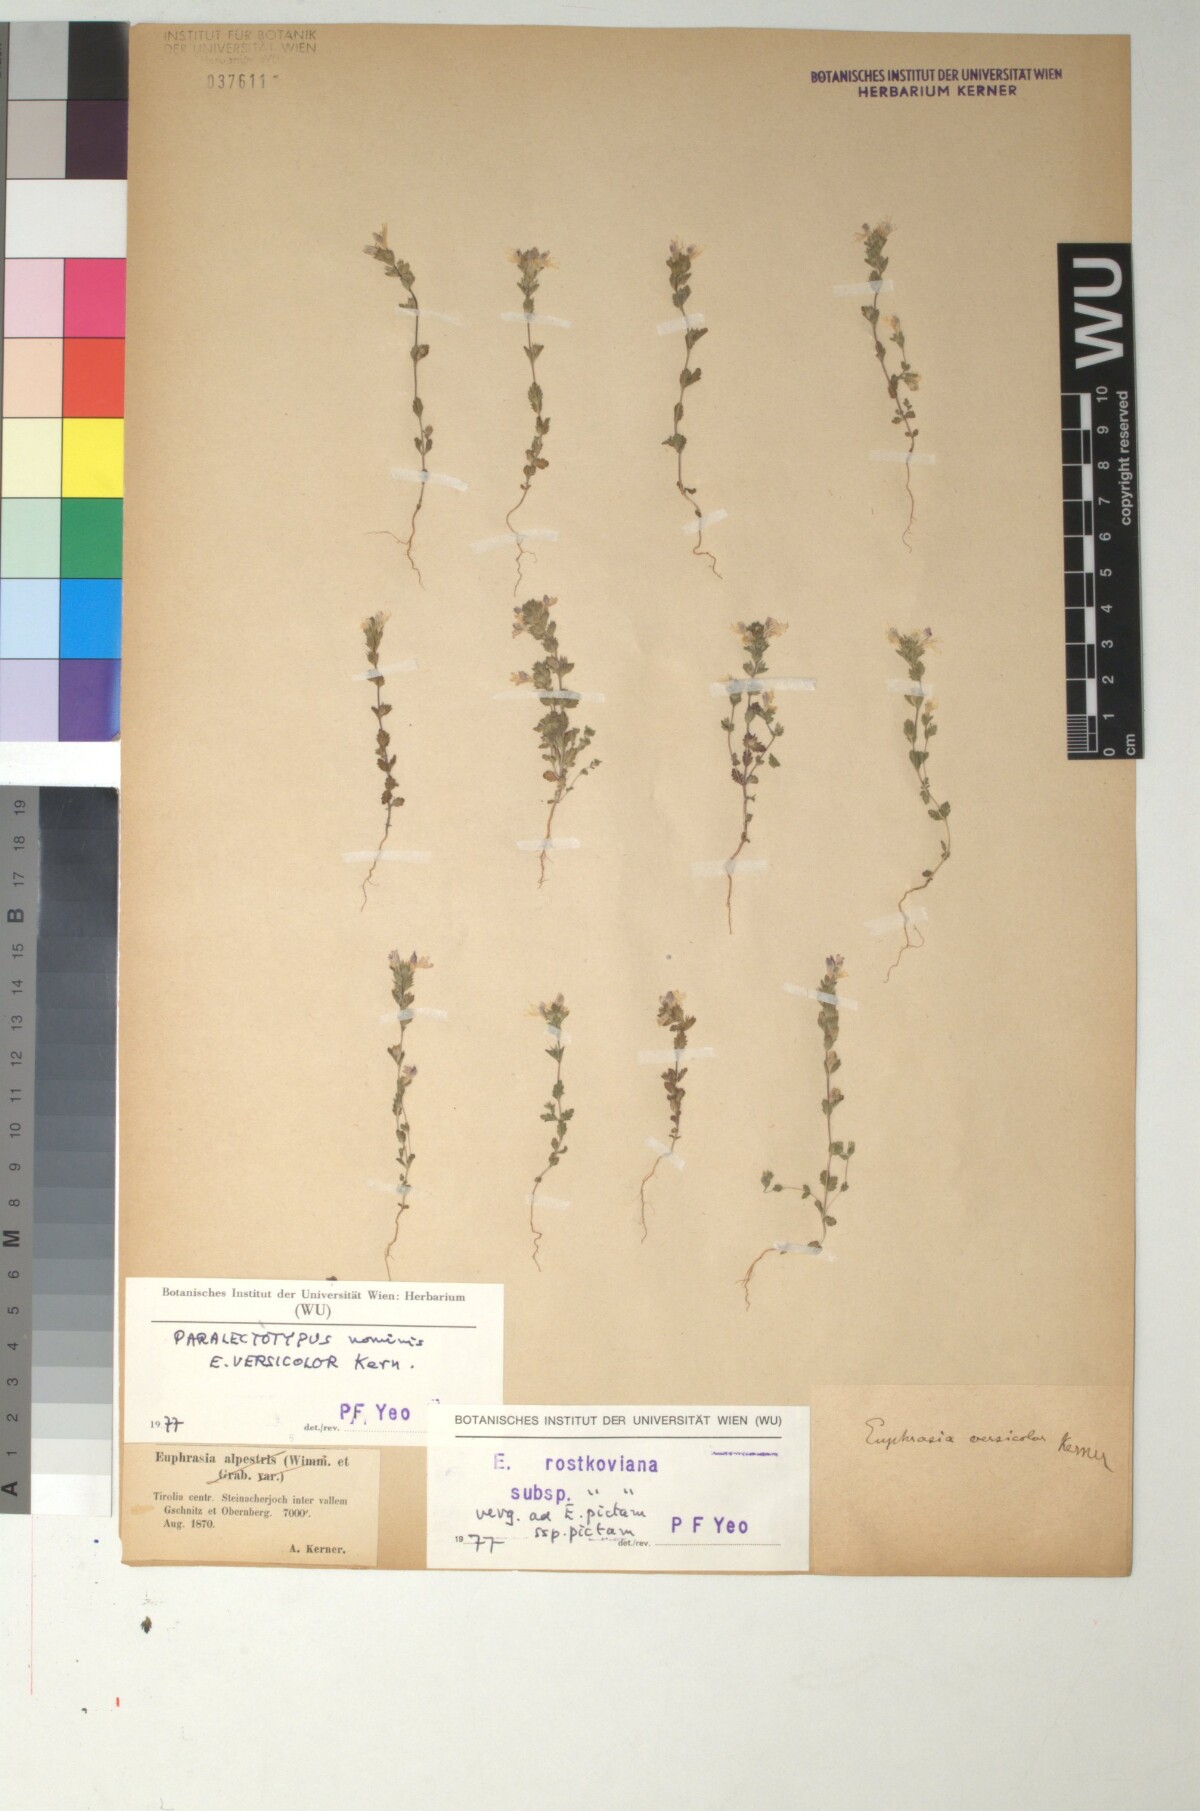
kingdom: Plantae
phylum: Tracheophyta
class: Magnoliopsida
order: Lamiales
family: Orobanchaceae
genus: Euphrasia
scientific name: Euphrasia picta
